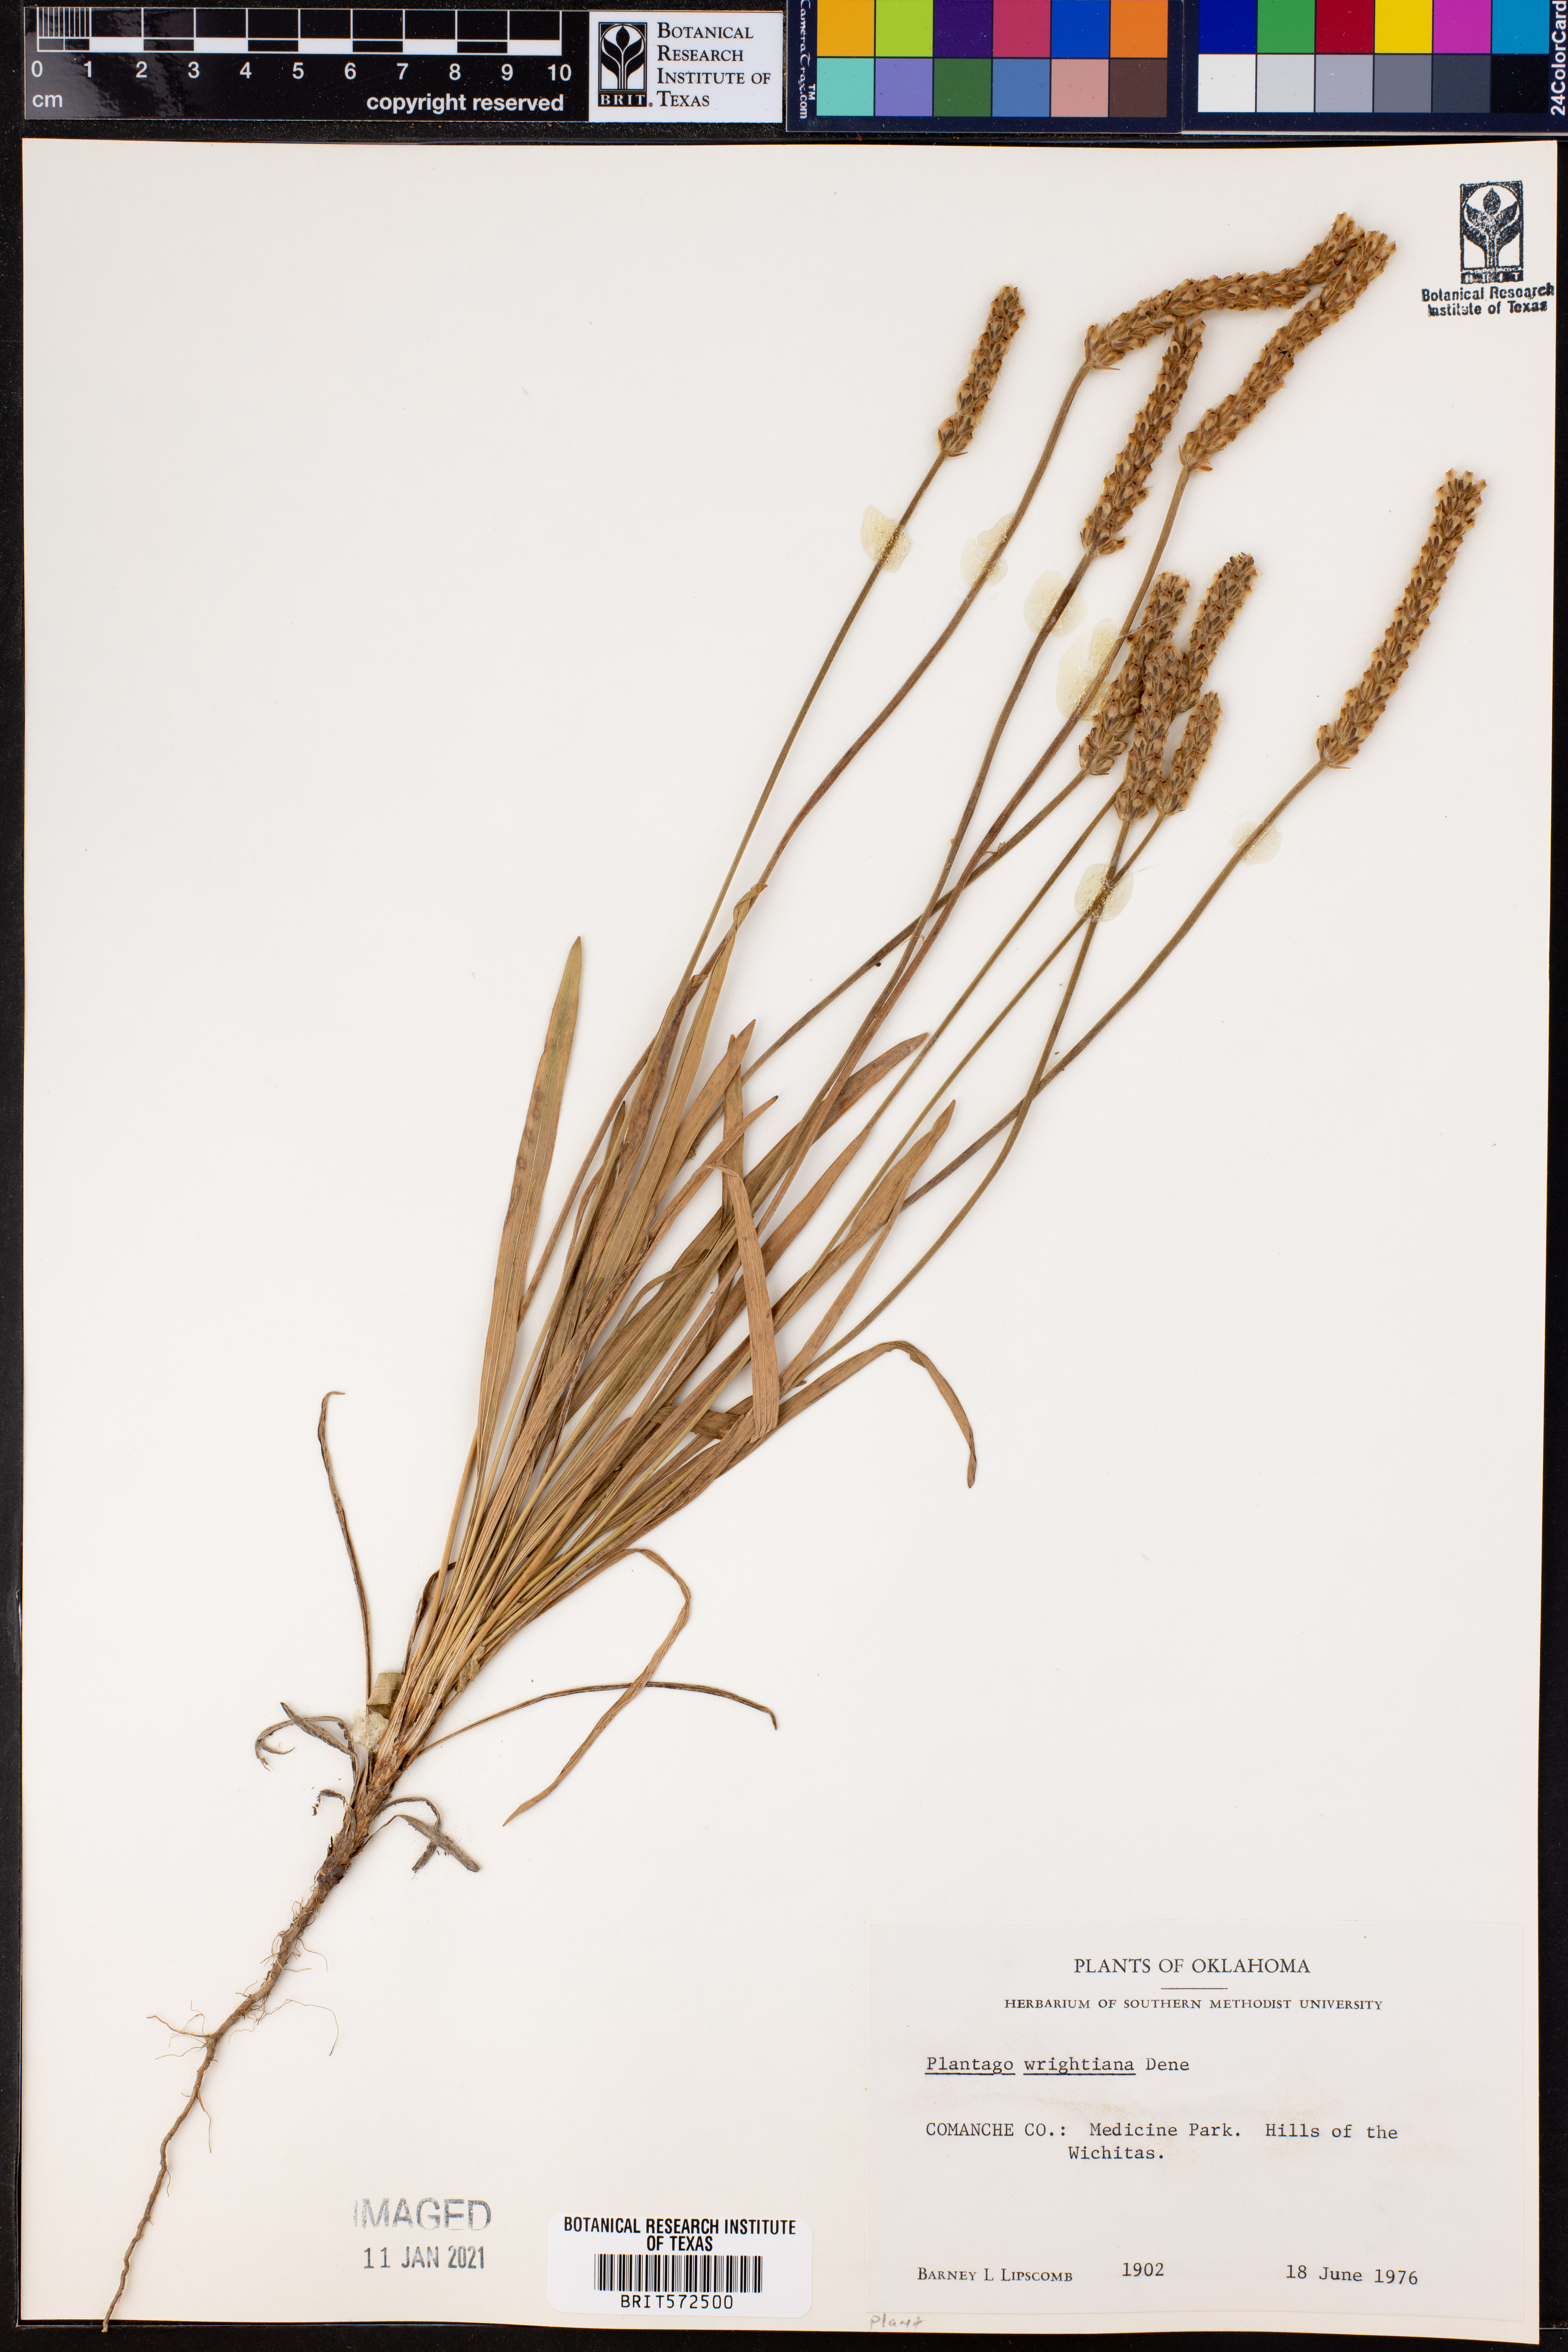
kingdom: Plantae
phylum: Tracheophyta
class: Magnoliopsida
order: Lamiales
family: Plantaginaceae
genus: Plantago
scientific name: Plantago wrightiana
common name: Wright's plantain
